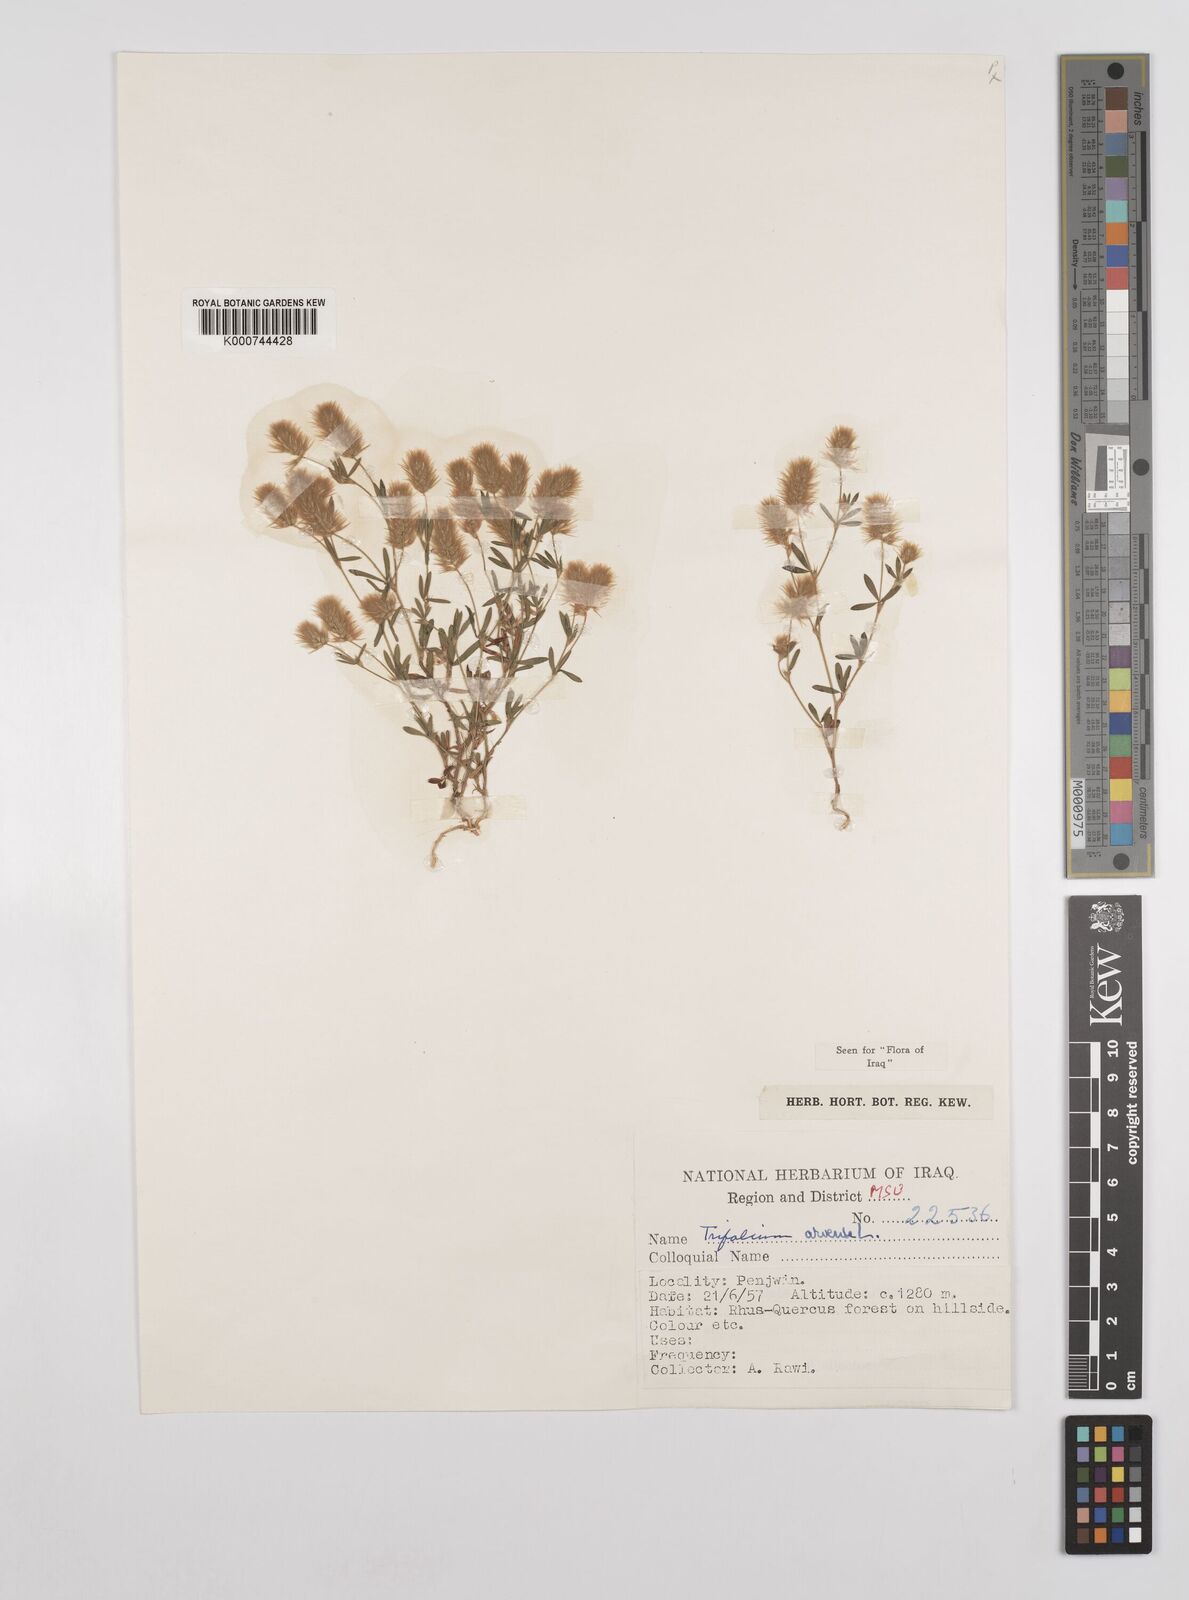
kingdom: Plantae
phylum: Tracheophyta
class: Magnoliopsida
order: Fabales
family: Fabaceae
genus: Trifolium
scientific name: Trifolium arvense
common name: Hare's-foot clover
